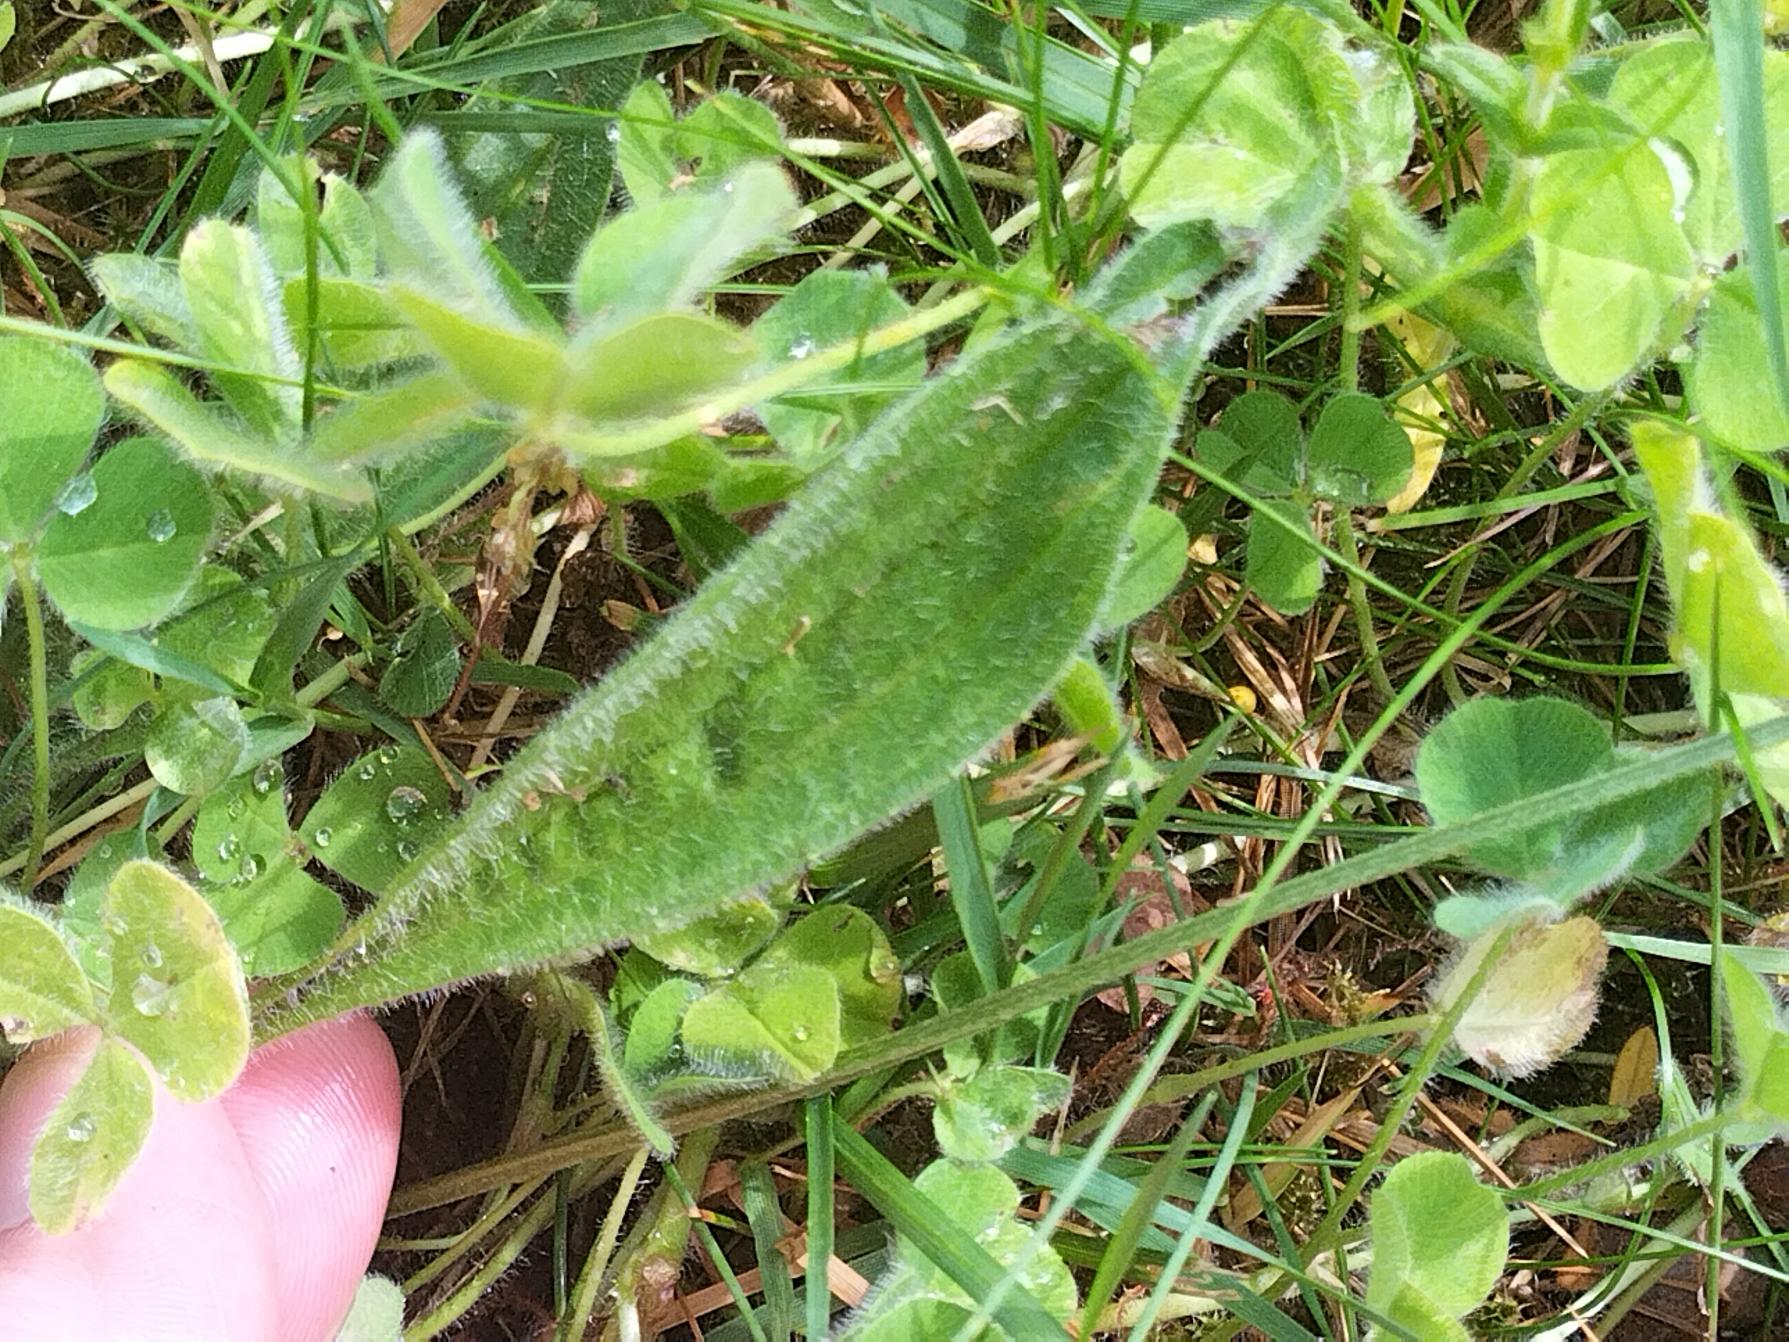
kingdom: Plantae
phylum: Tracheophyta
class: Magnoliopsida
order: Lamiales
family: Plantaginaceae
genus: Plantago
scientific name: Plantago lanceolata
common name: Lancet-vejbred
